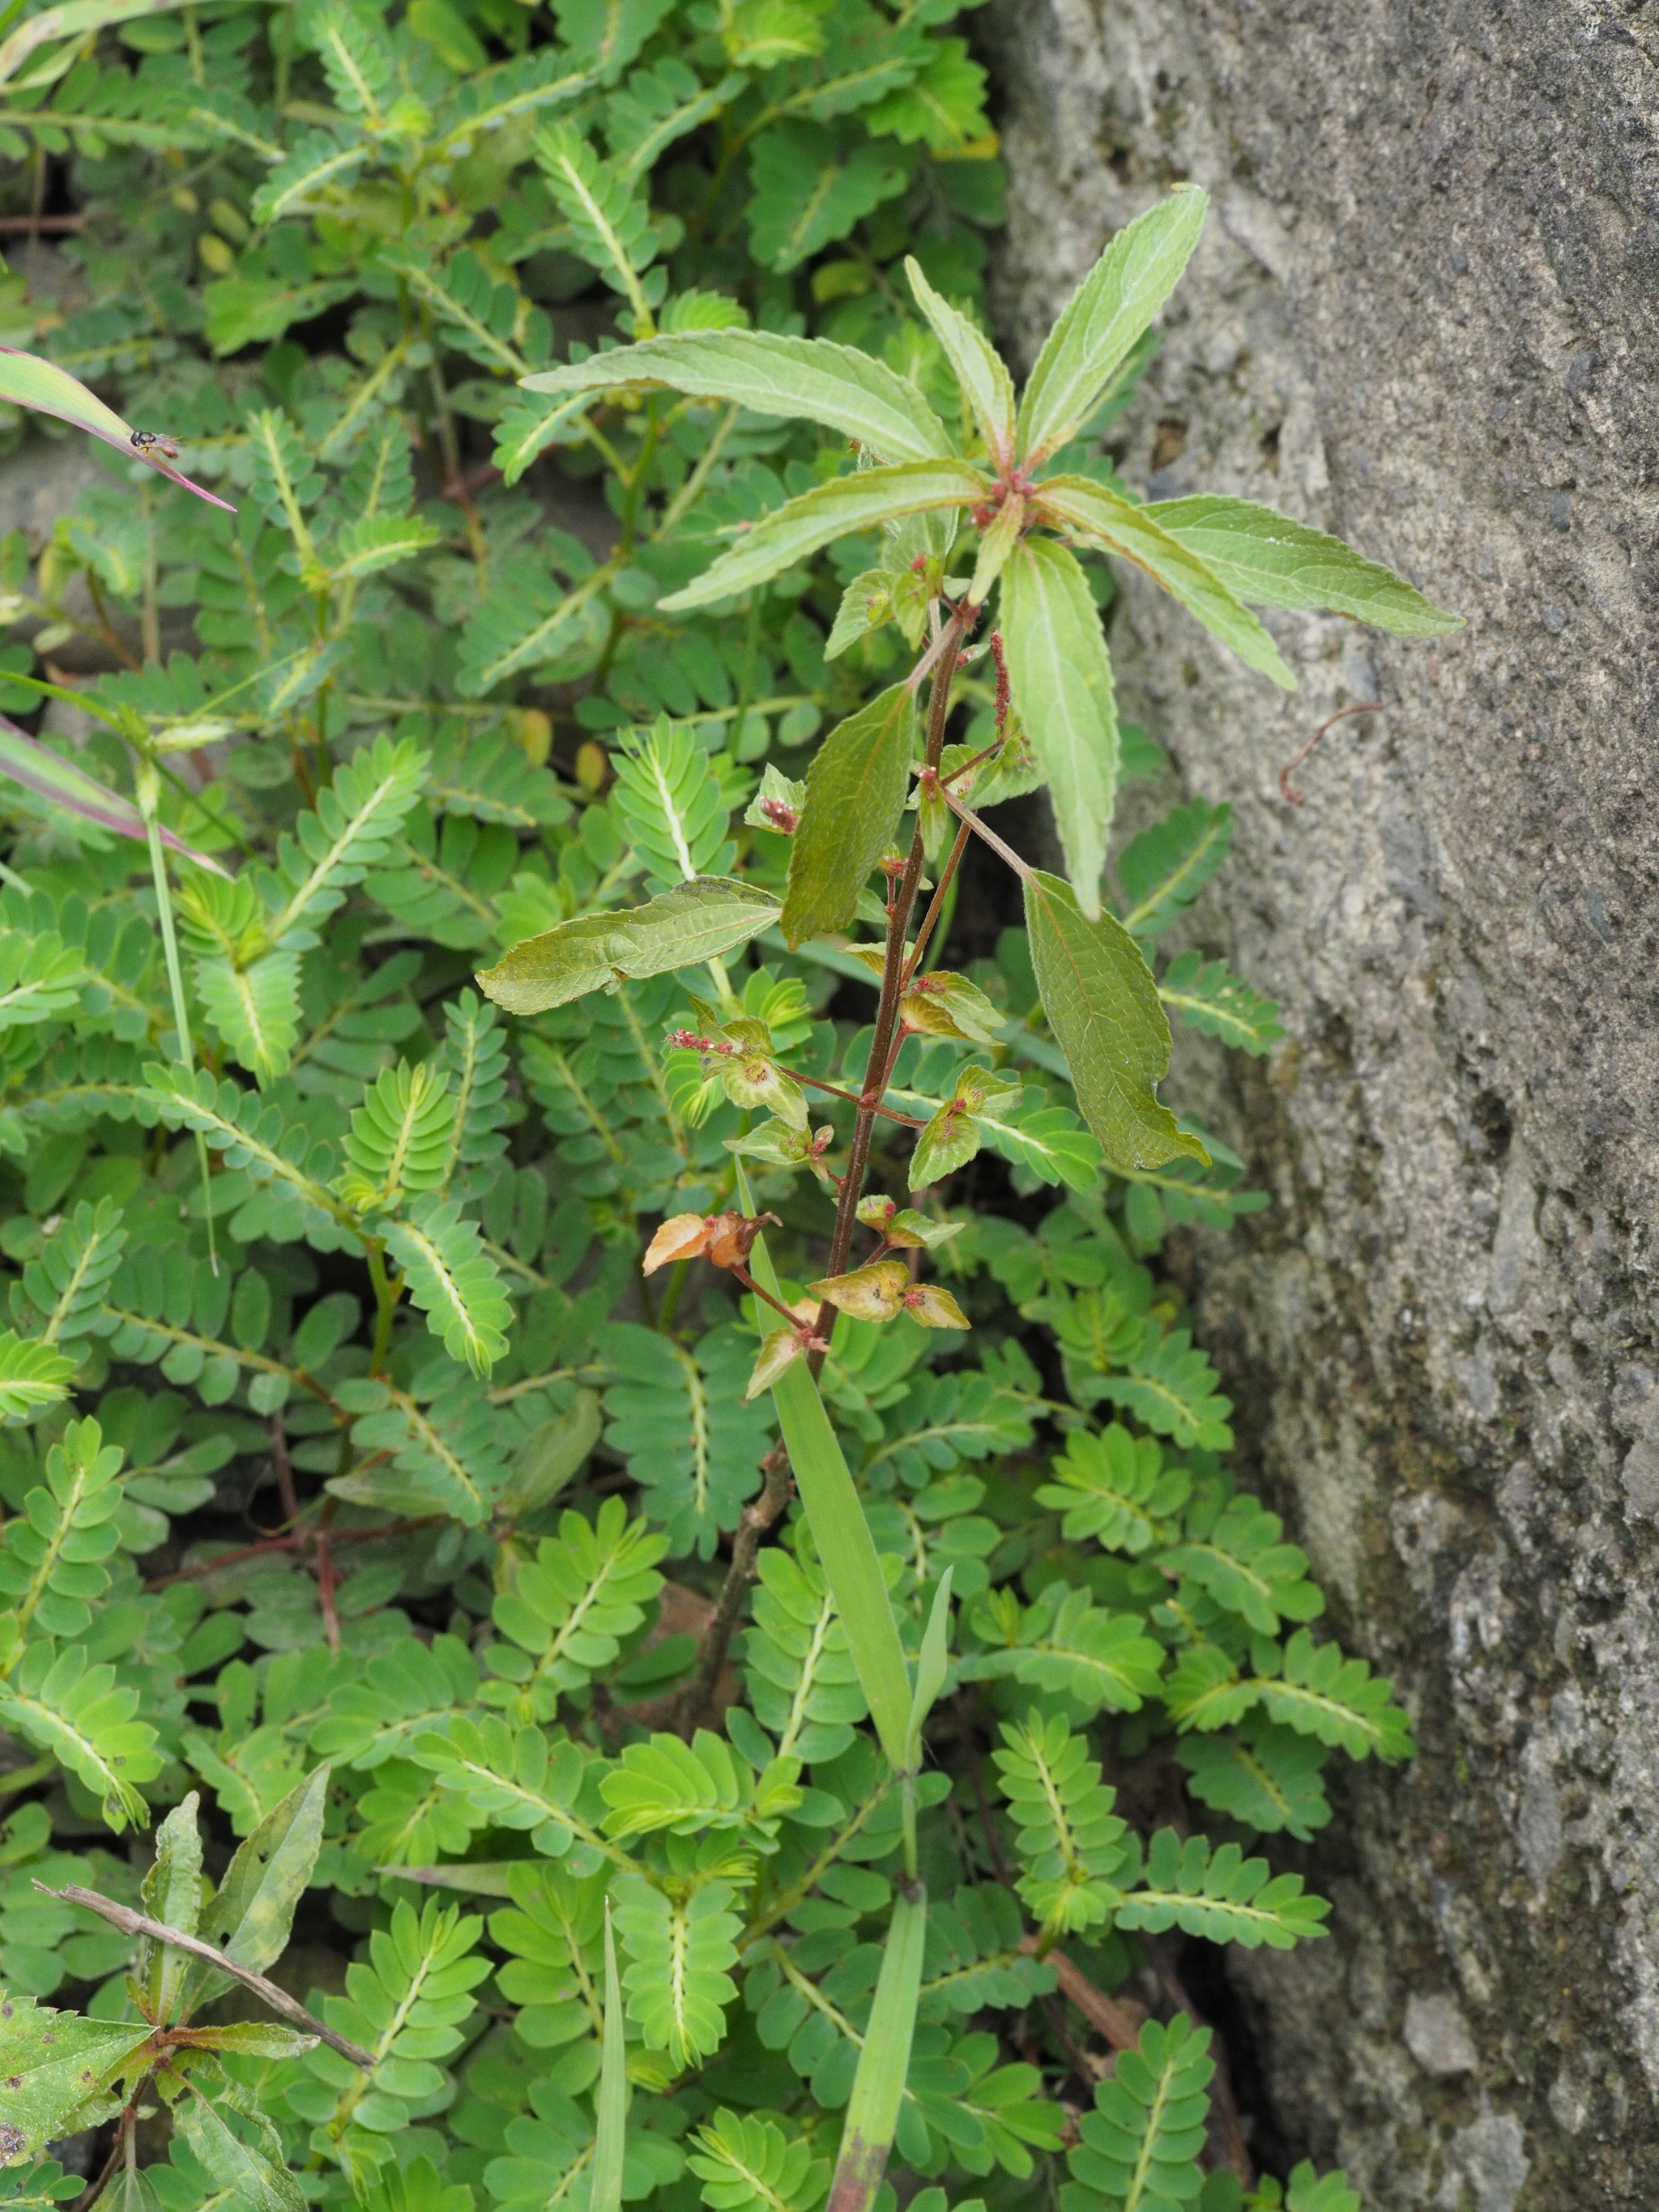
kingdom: Plantae
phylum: Tracheophyta
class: Magnoliopsida
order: Malpighiales
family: Euphorbiaceae
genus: Acalypha
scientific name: Acalypha australis
